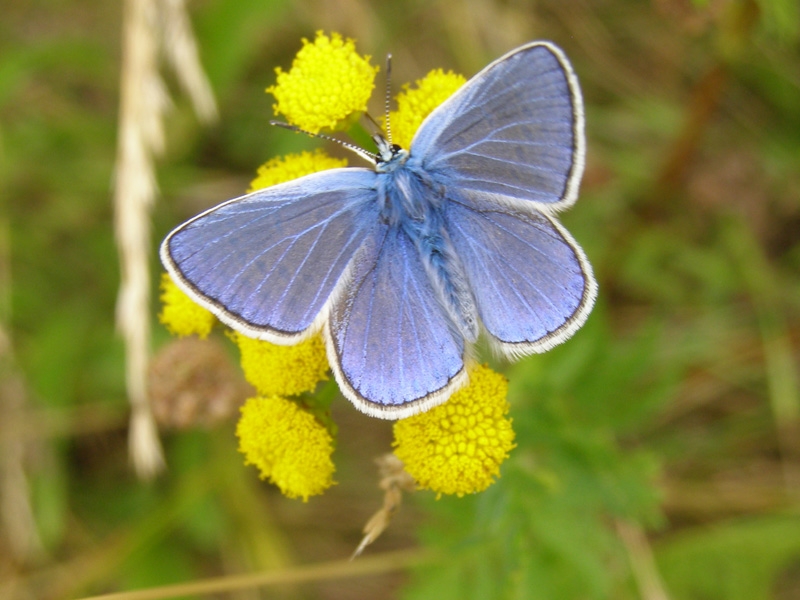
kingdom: Animalia
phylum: Arthropoda
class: Insecta
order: Lepidoptera
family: Lycaenidae
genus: Polyommatus
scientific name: Polyommatus icarus
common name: Almindelig blåfugl
